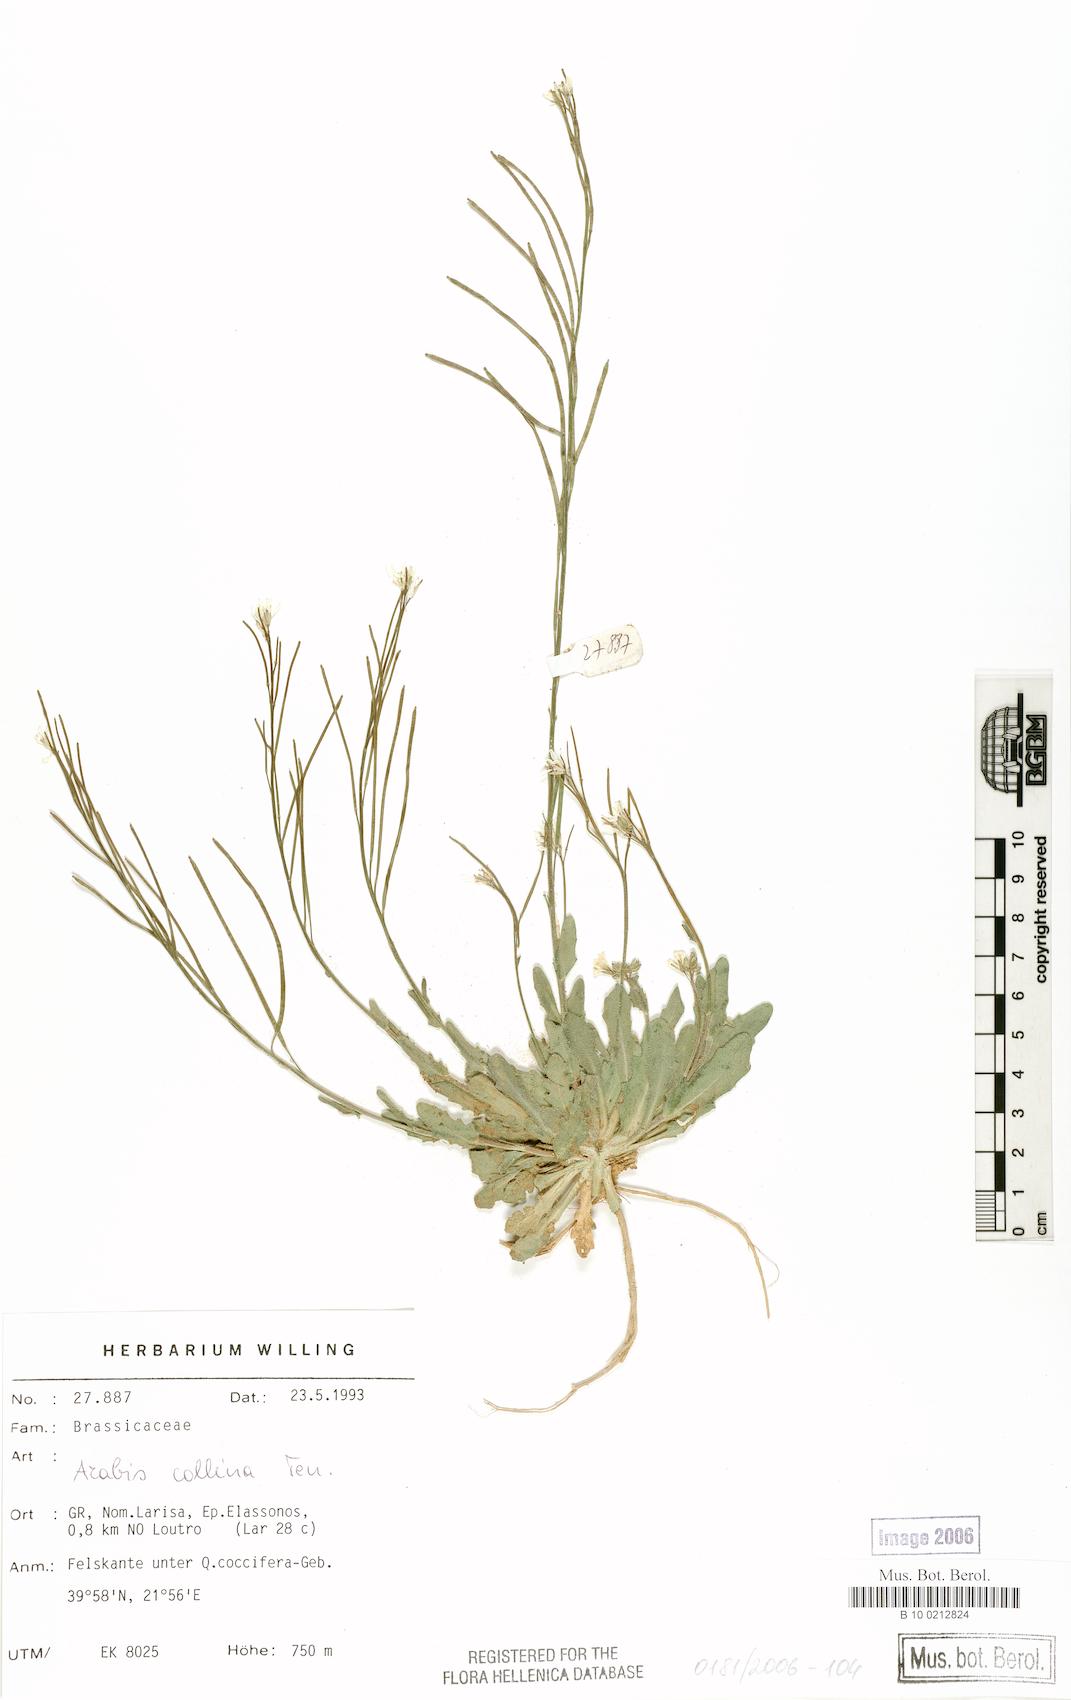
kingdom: Plantae
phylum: Tracheophyta
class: Magnoliopsida
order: Brassicales
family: Brassicaceae
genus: Arabis
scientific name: Arabis collina
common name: Rosy cress
